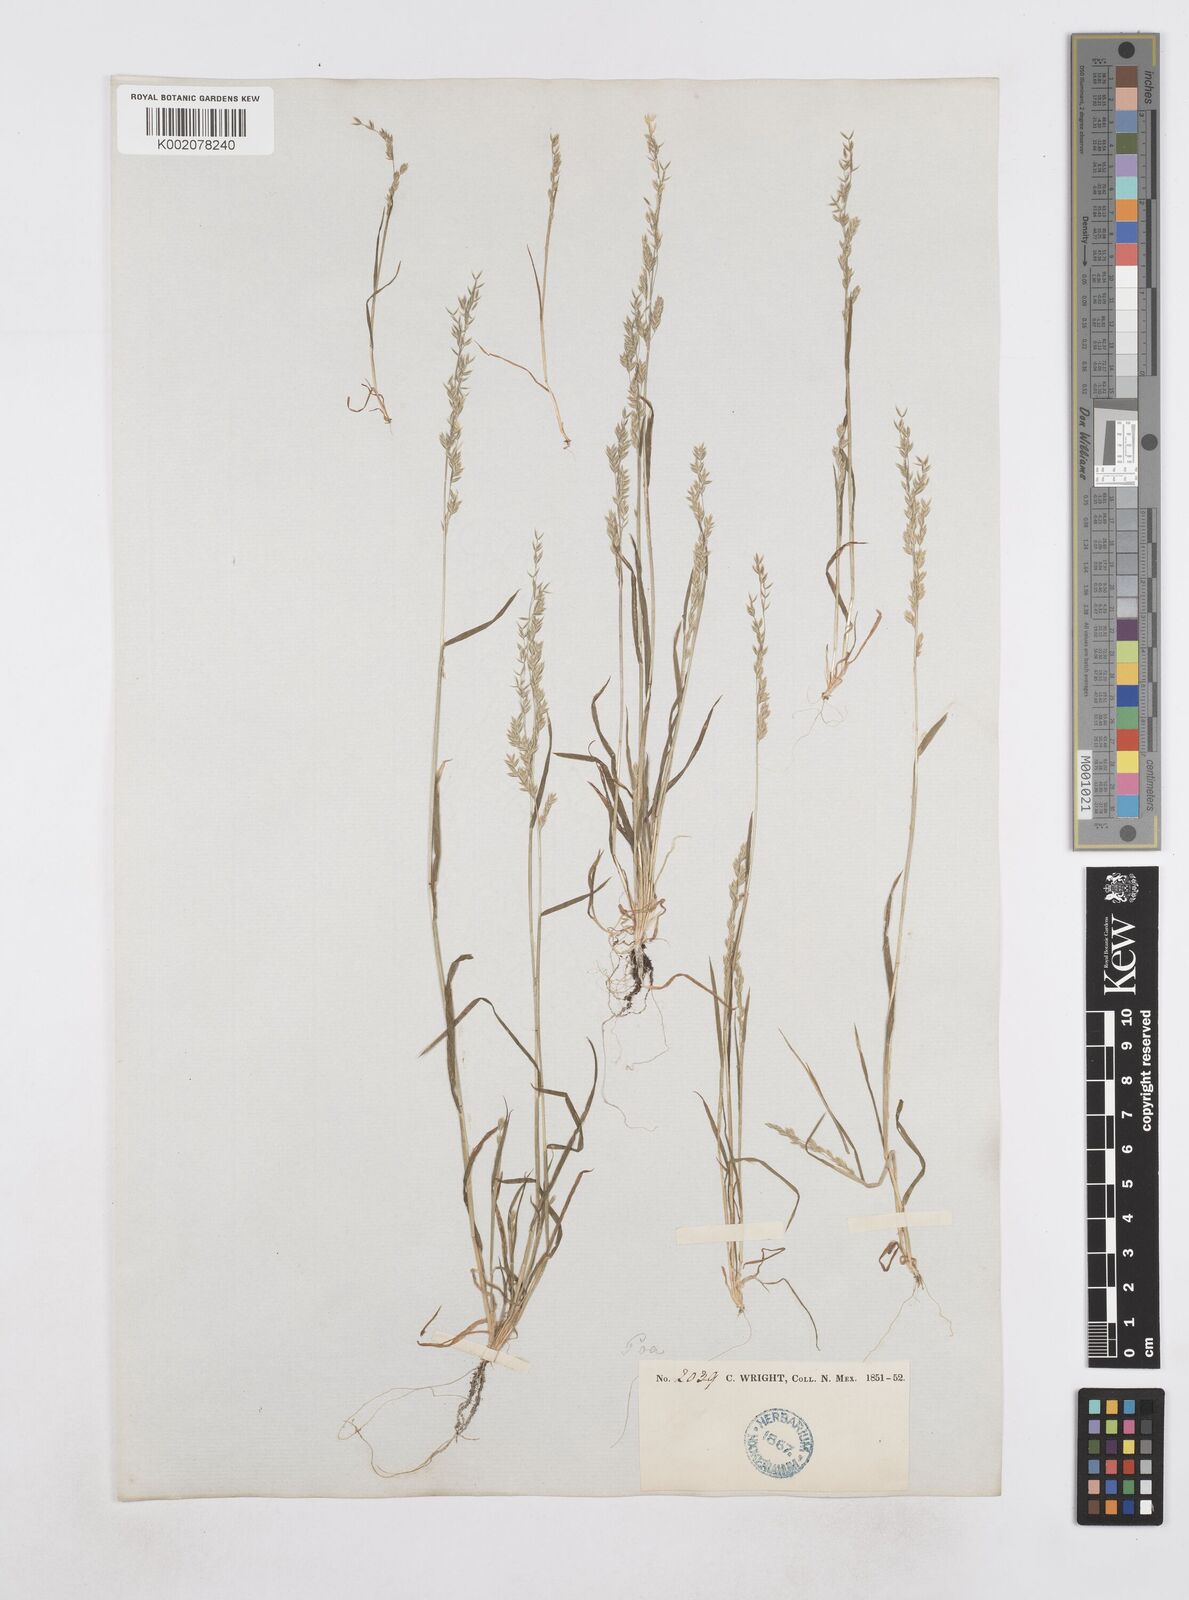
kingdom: Plantae
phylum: Tracheophyta
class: Liliopsida
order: Poales
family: Poaceae
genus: Poa
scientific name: Poa
